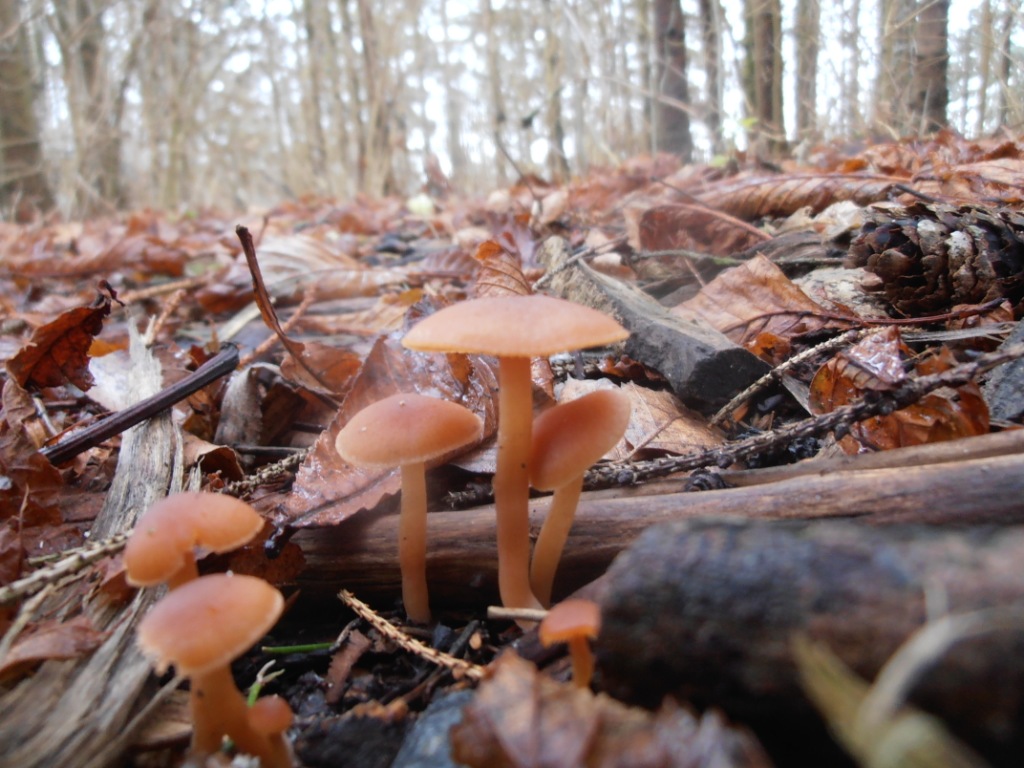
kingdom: Fungi
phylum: Basidiomycota
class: Agaricomycetes
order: Agaricales
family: Tubariaceae
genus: Tubaria
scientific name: Tubaria furfuracea
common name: kliddet fnughat
